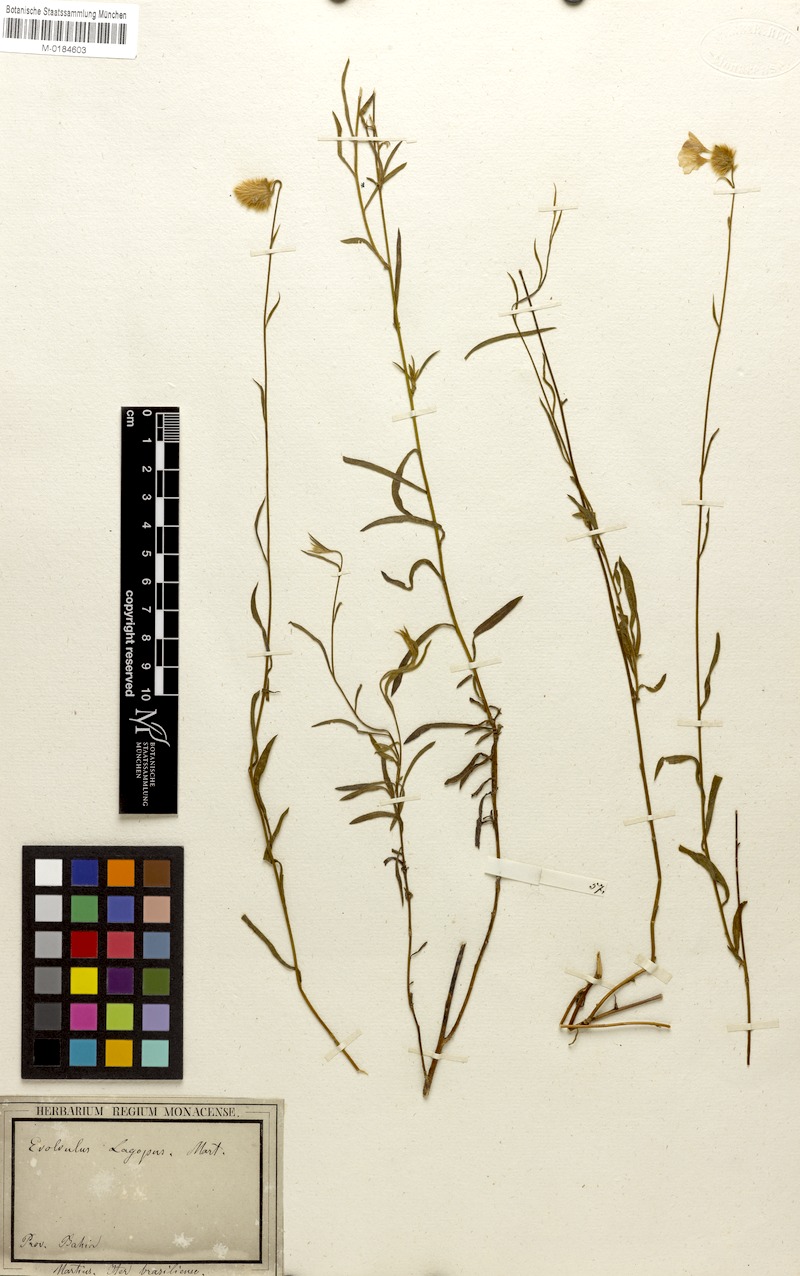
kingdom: Plantae
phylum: Tracheophyta
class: Magnoliopsida
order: Solanales
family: Convolvulaceae
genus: Evolvulus
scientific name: Evolvulus lagopus
